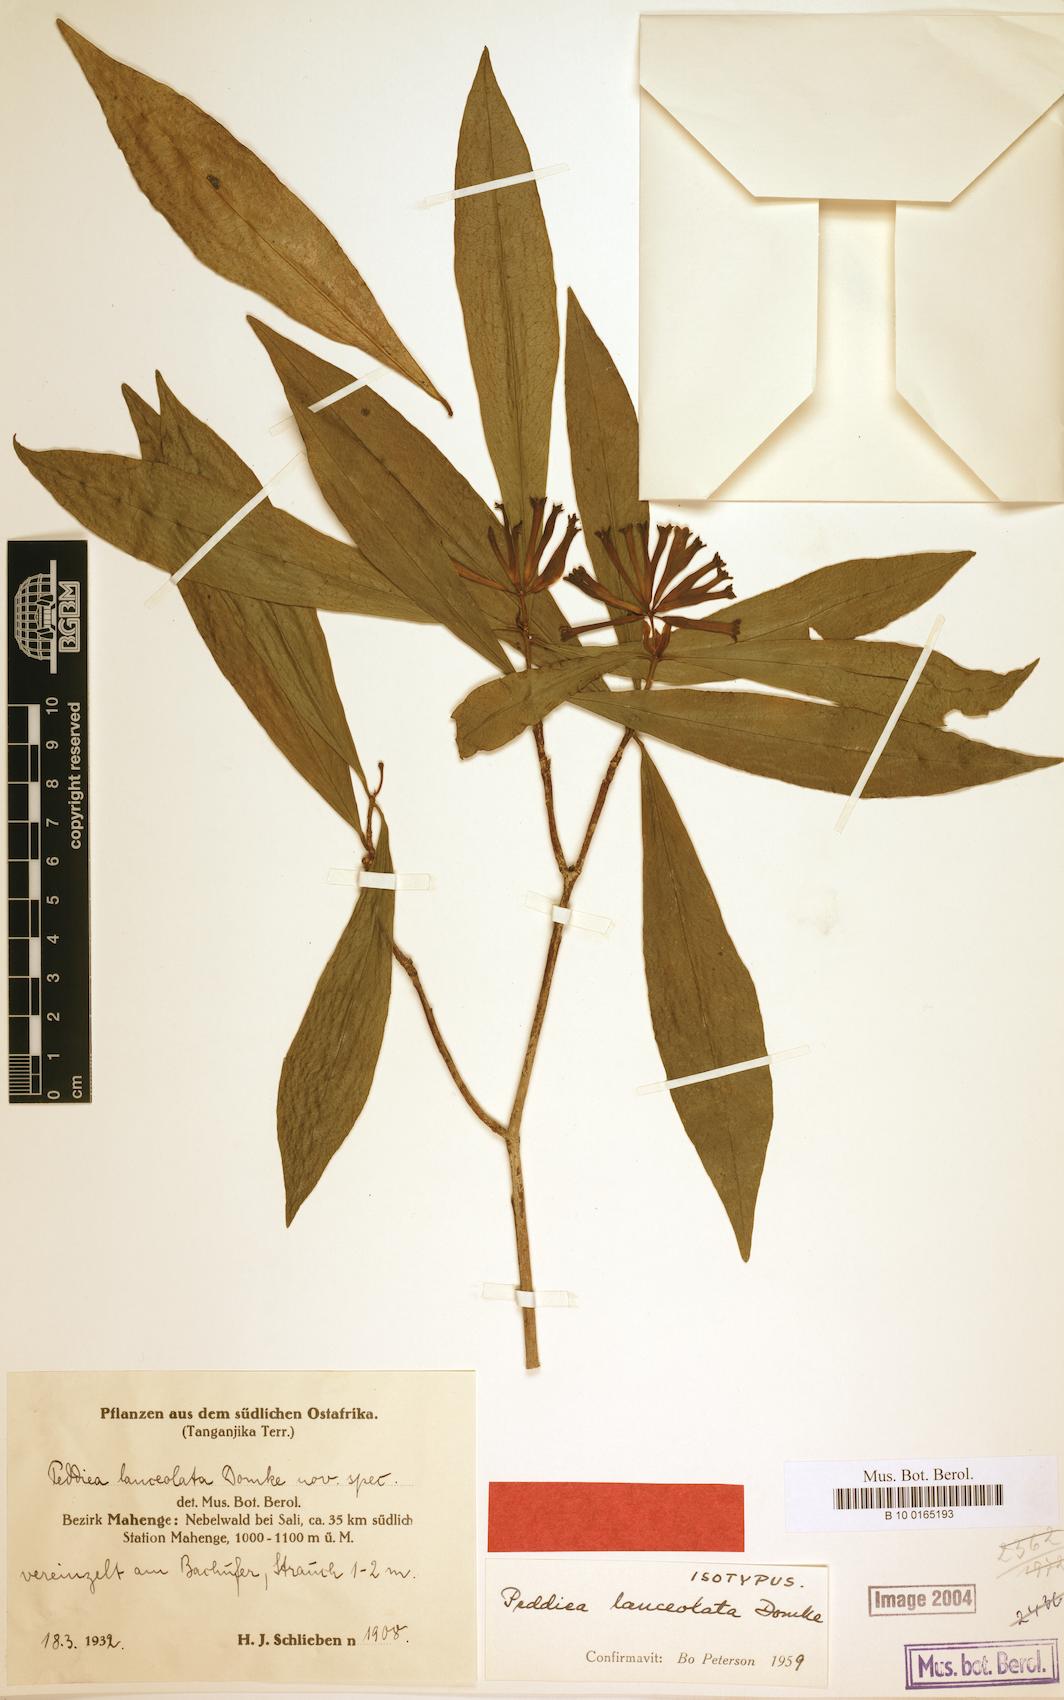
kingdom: Plantae
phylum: Tracheophyta
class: Magnoliopsida
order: Malvales
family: Thymelaeaceae
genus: Peddiea
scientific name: Peddiea lanceolata
